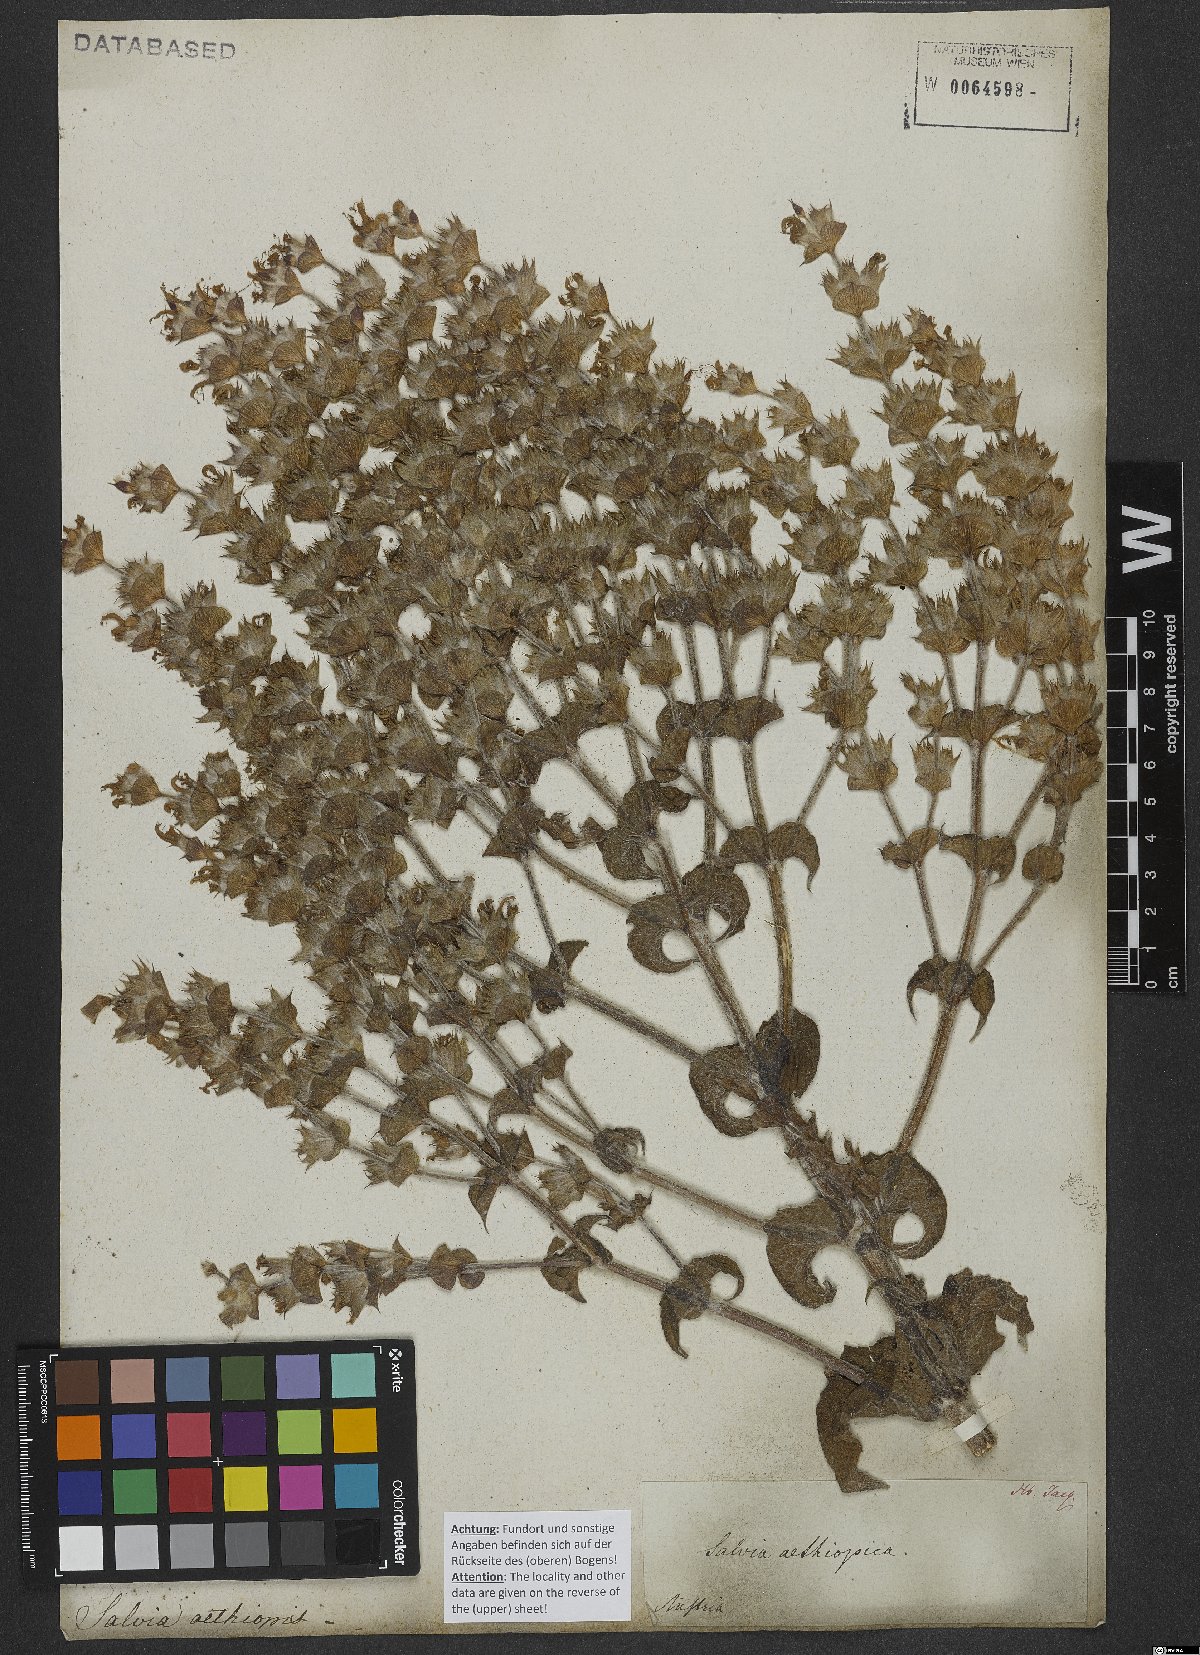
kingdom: Plantae
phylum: Tracheophyta
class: Magnoliopsida
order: Lamiales
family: Lamiaceae
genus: Salvia
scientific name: Salvia aethiopis
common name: Mediterranean sage
